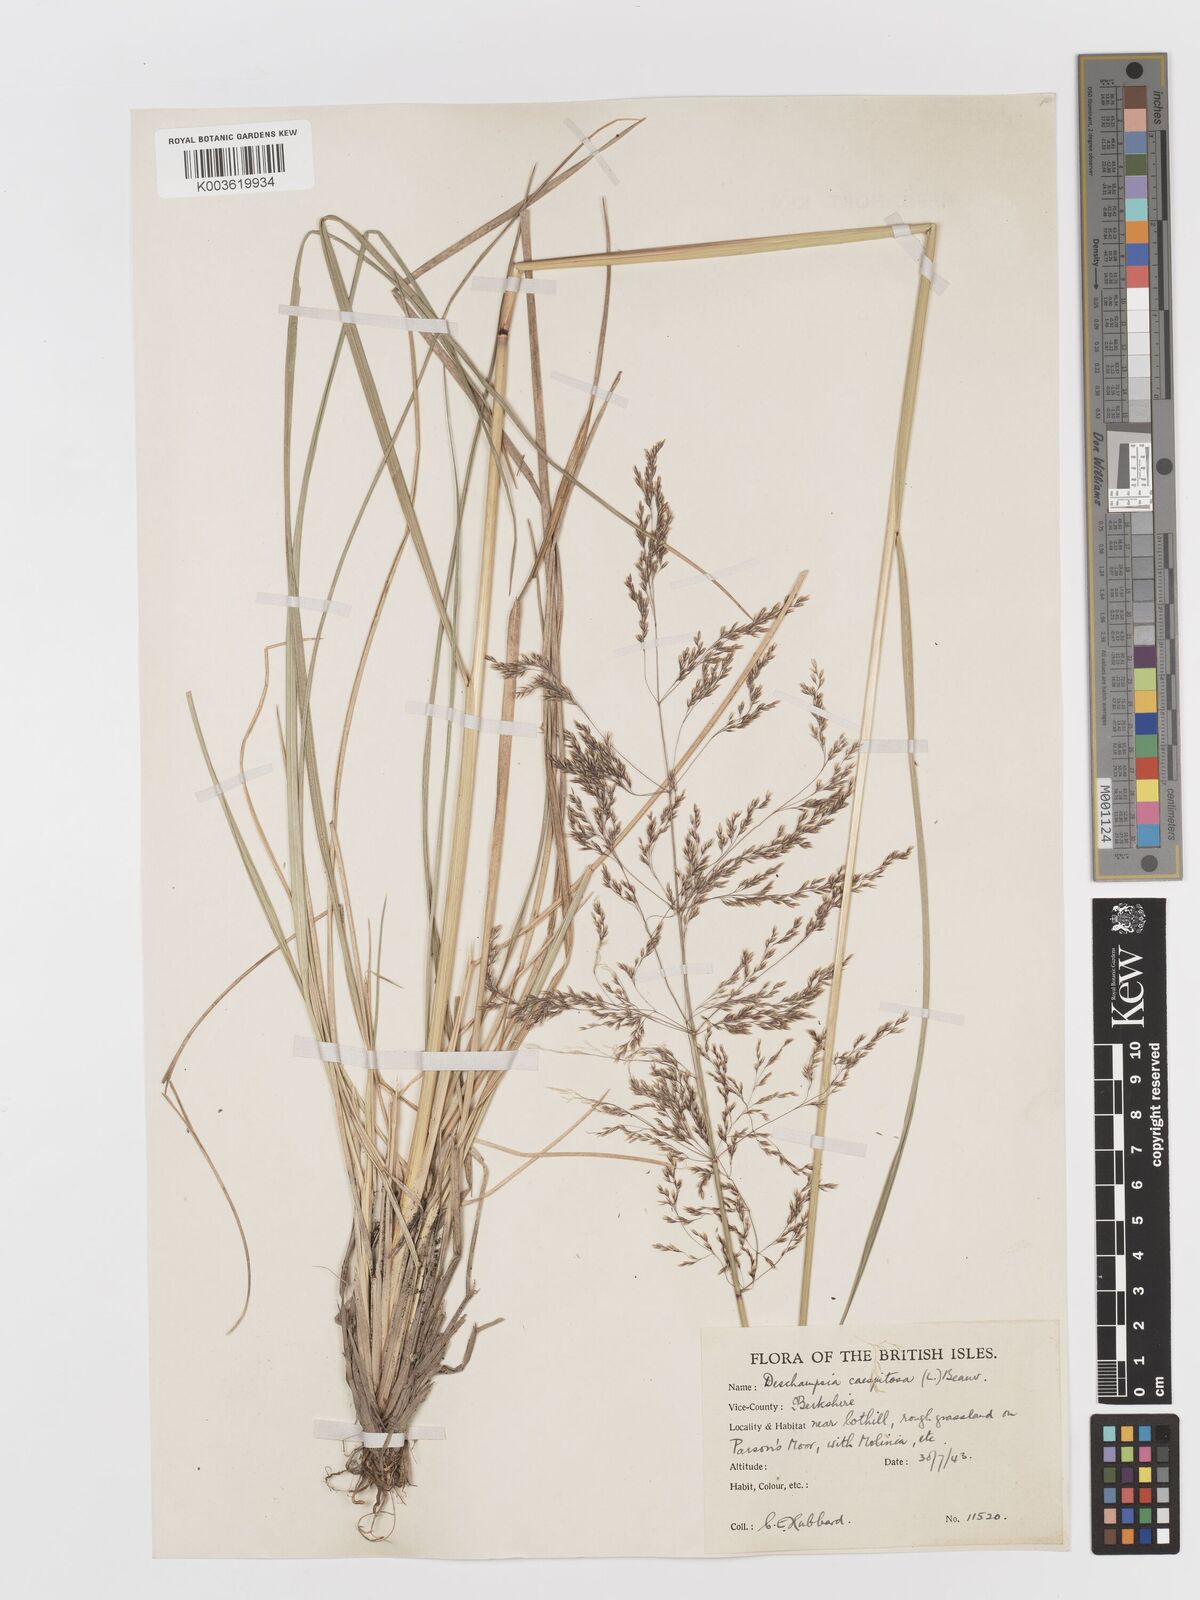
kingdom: Plantae
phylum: Tracheophyta
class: Liliopsida
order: Poales
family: Poaceae
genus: Deschampsia
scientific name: Deschampsia
